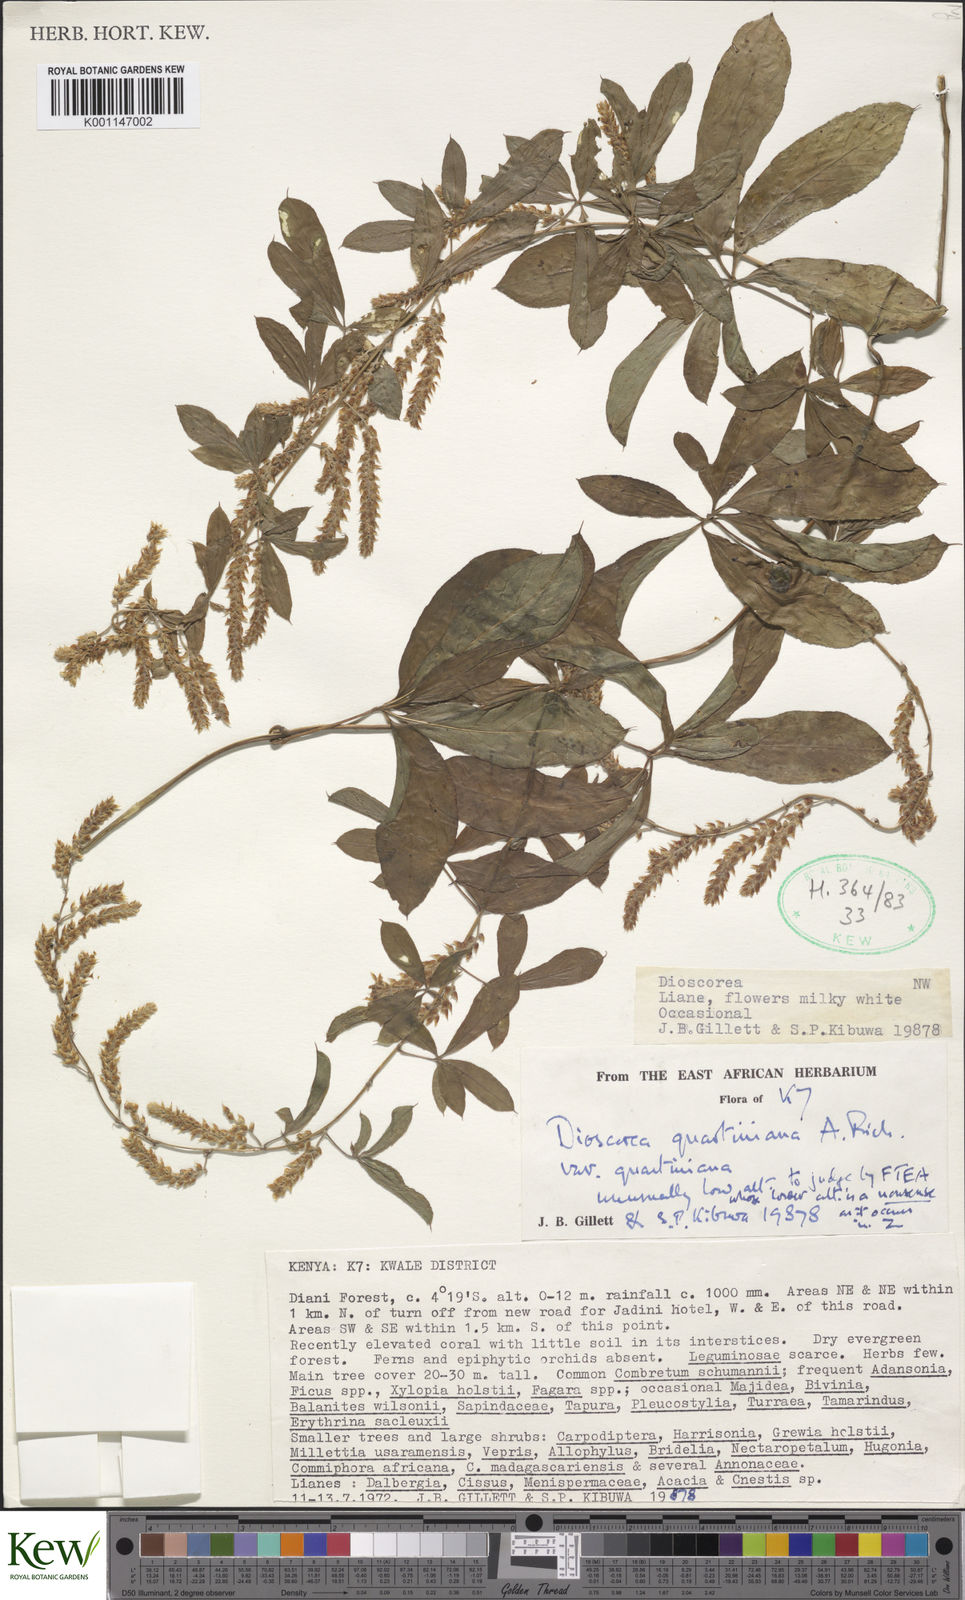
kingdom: Plantae
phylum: Tracheophyta
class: Liliopsida
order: Dioscoreales
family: Dioscoreaceae
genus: Dioscorea
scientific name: Dioscorea quartiniana
